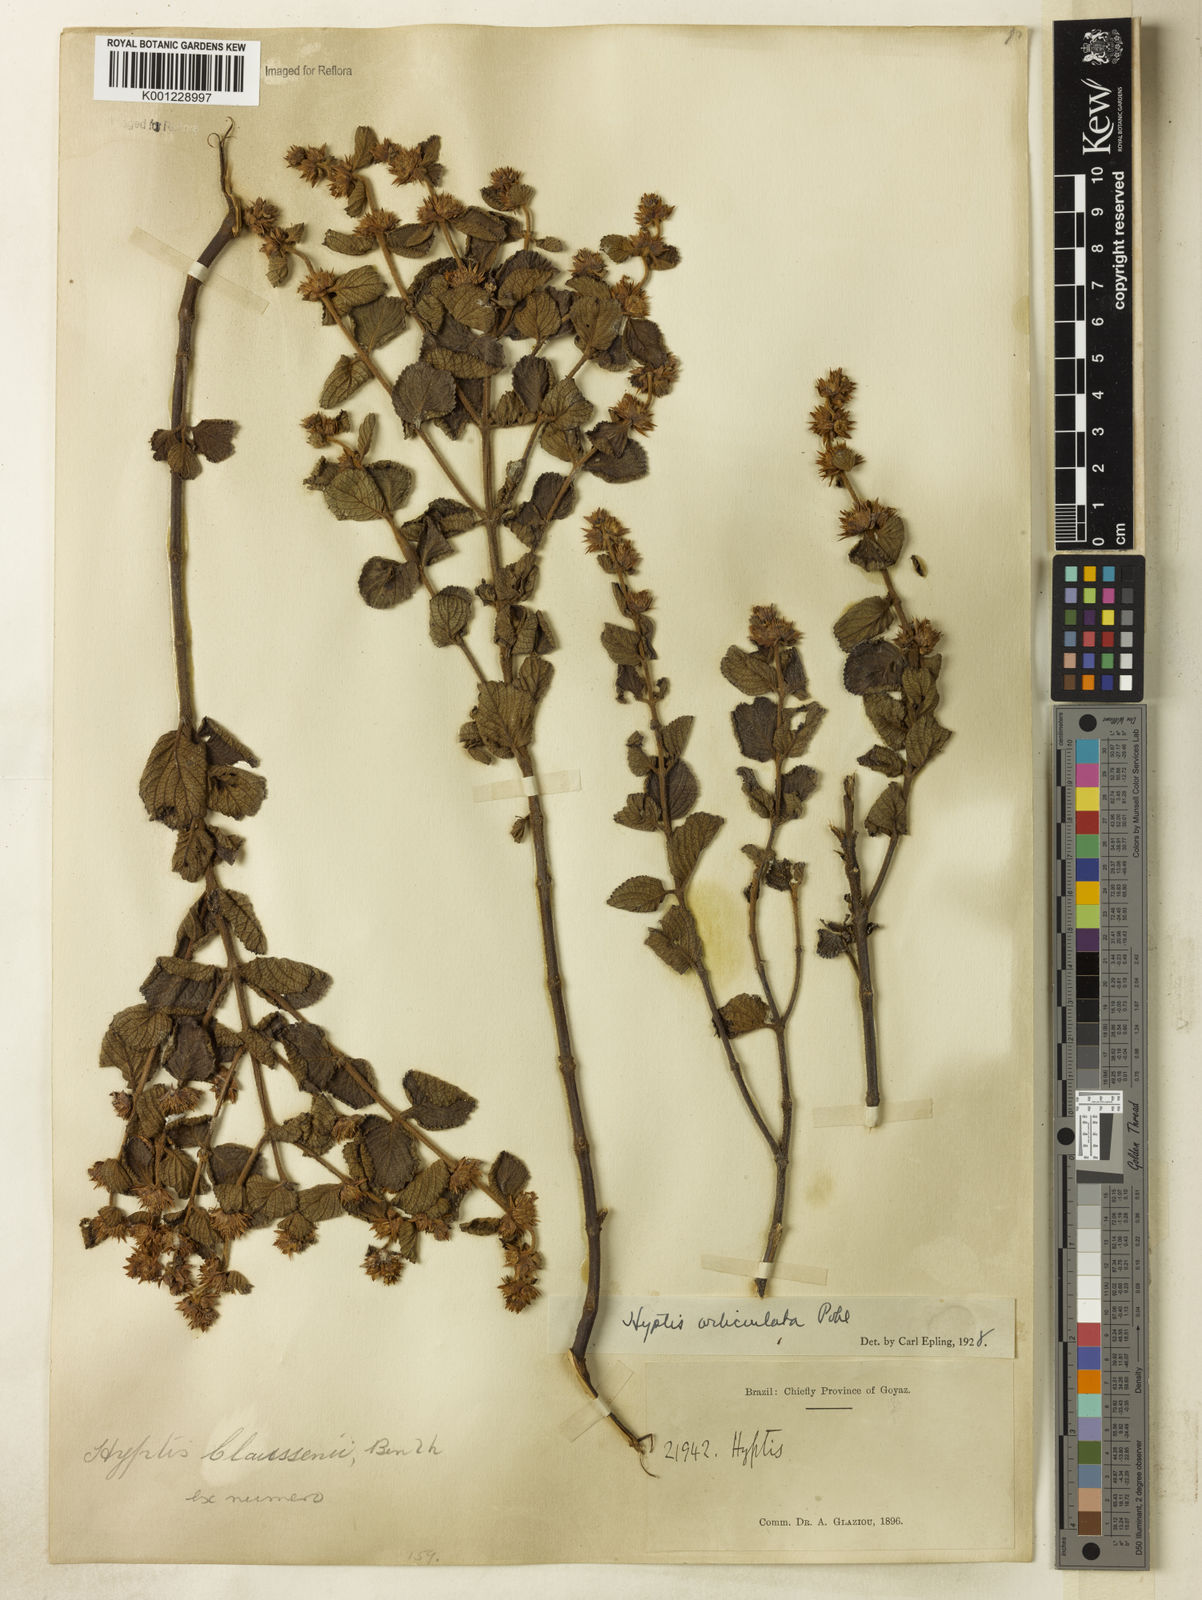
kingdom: Plantae
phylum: Tracheophyta
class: Magnoliopsida
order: Lamiales
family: Lamiaceae
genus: Hyptis
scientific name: Hyptis orbiculata
